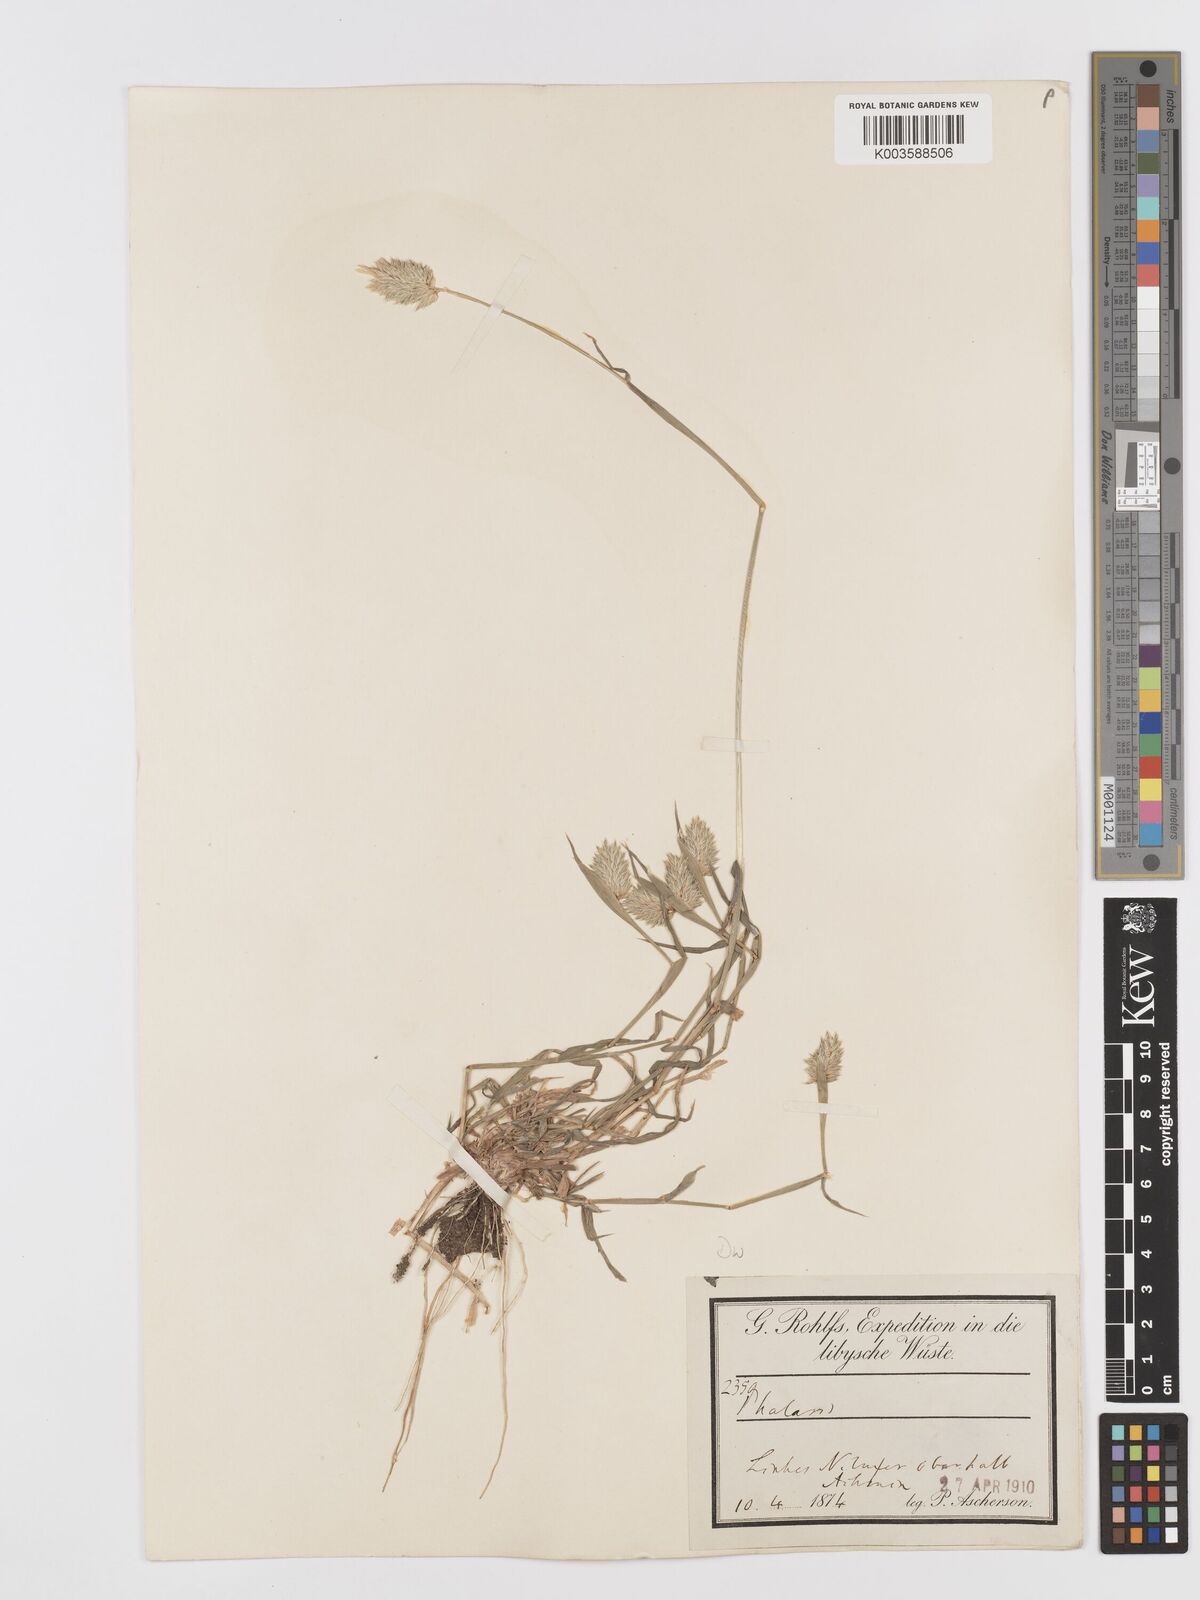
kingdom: Plantae
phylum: Tracheophyta
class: Liliopsida
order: Poales
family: Poaceae
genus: Phalaris
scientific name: Phalaris minor
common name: Littleseed canarygrass
